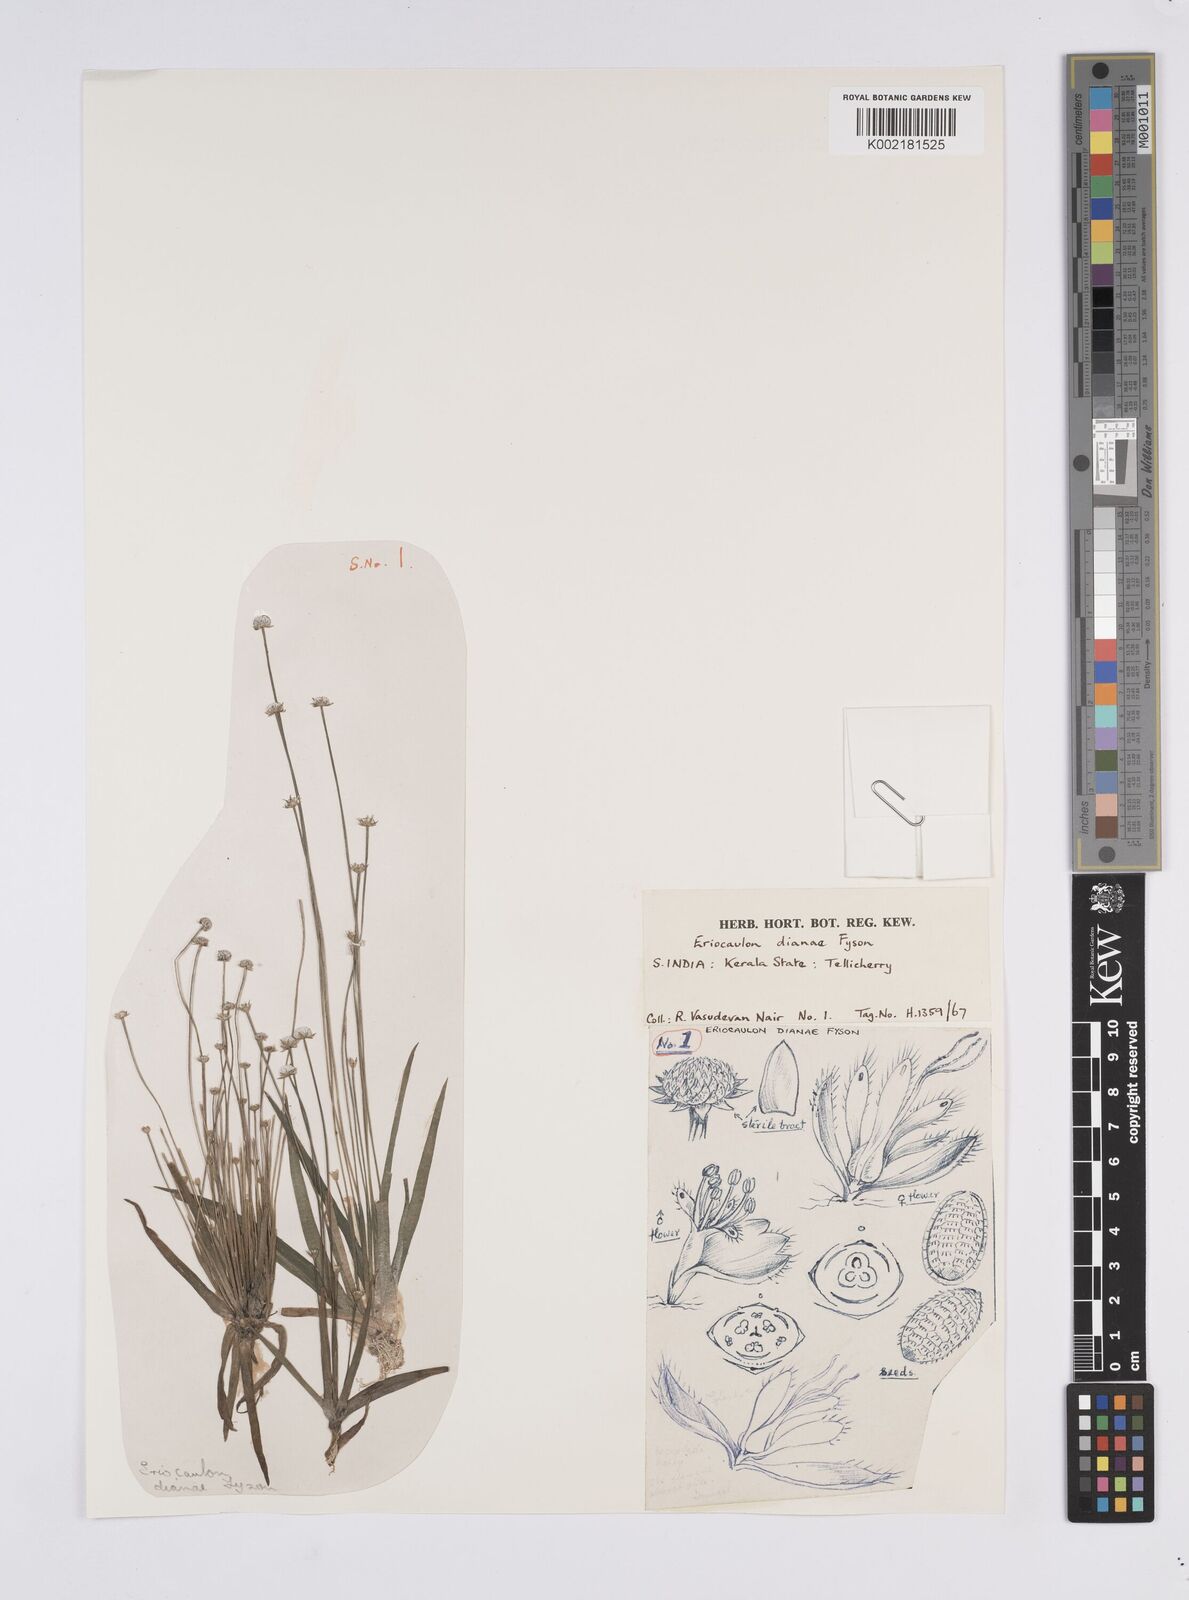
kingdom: Plantae
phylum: Tracheophyta
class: Liliopsida
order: Poales
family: Eriocaulaceae
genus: Eriocaulon
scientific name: Eriocaulon heterolepis
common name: Buttonhead pipewort
